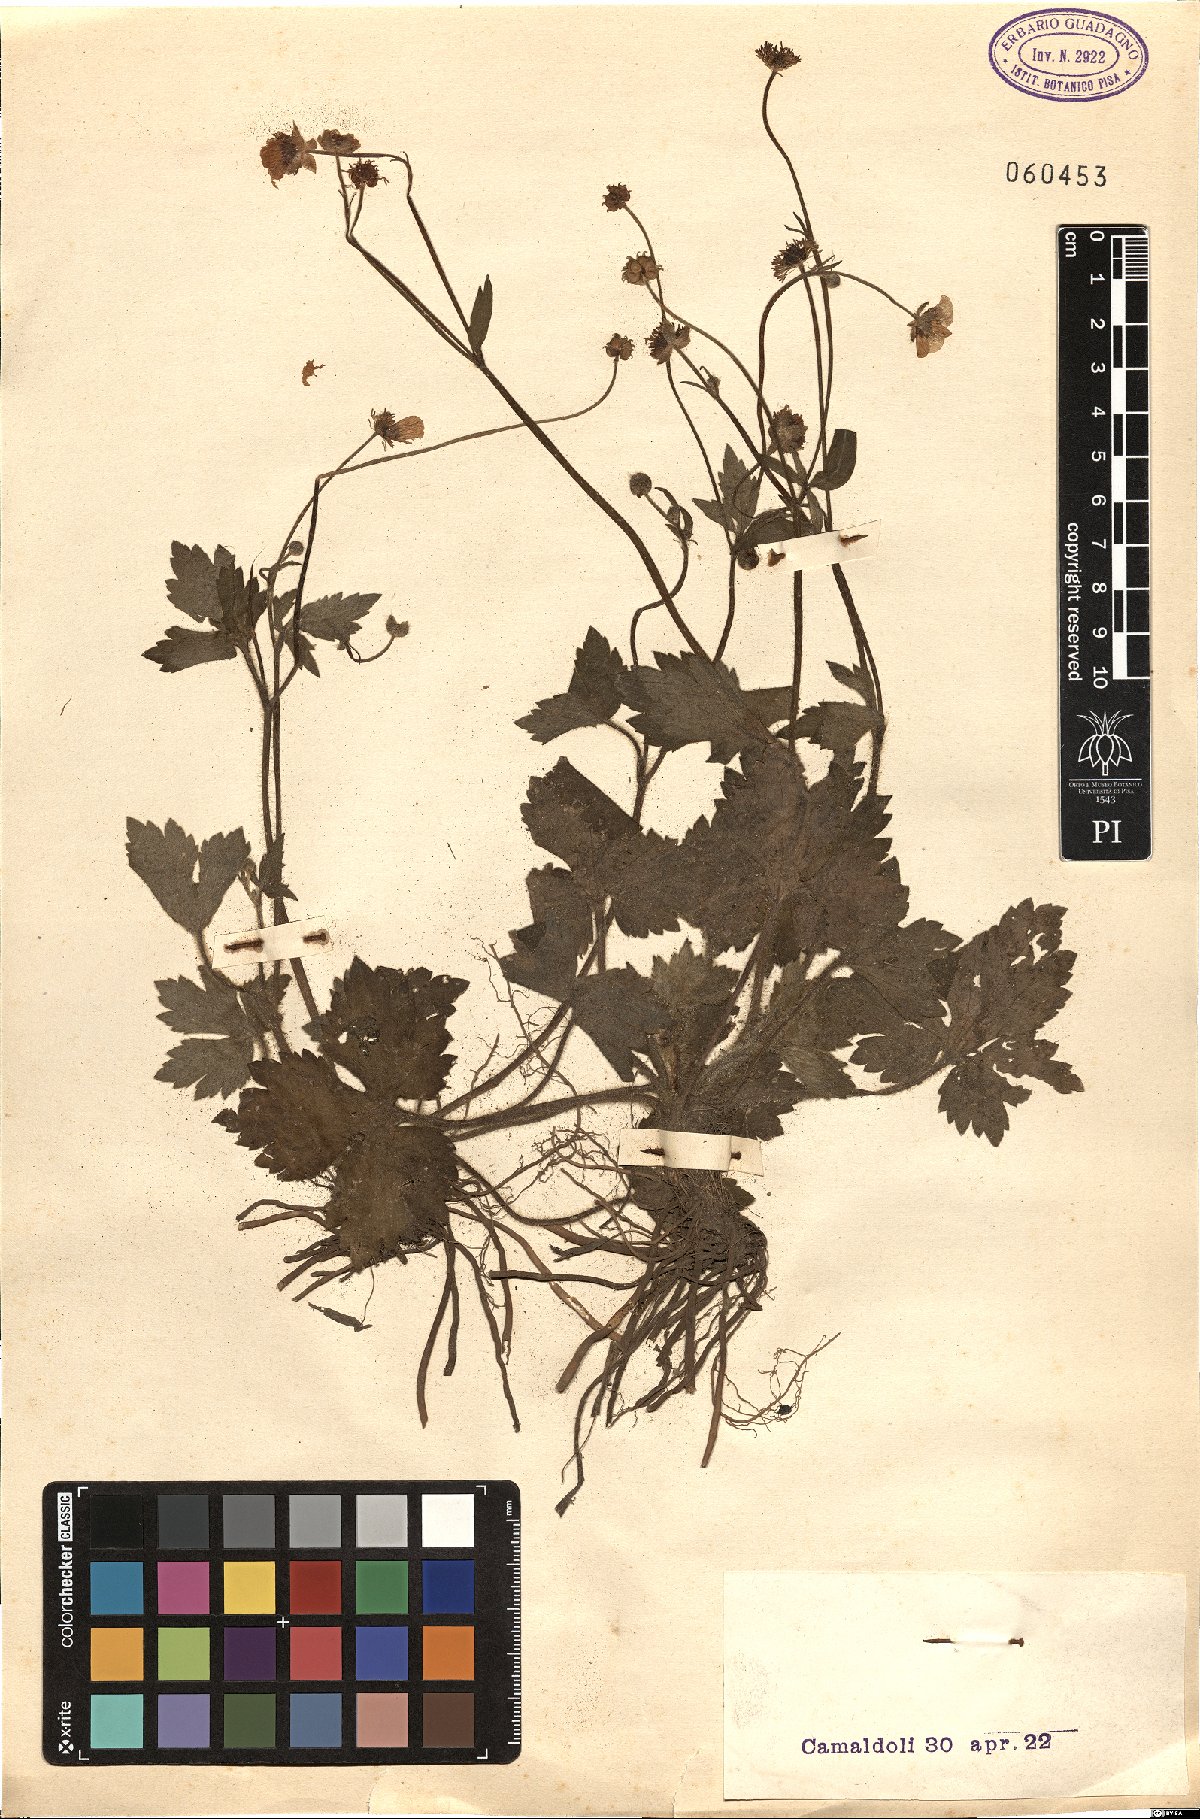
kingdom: Plantae
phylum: Tracheophyta
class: Magnoliopsida
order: Ranunculales
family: Ranunculaceae
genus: Ranunculus
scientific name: Ranunculus
